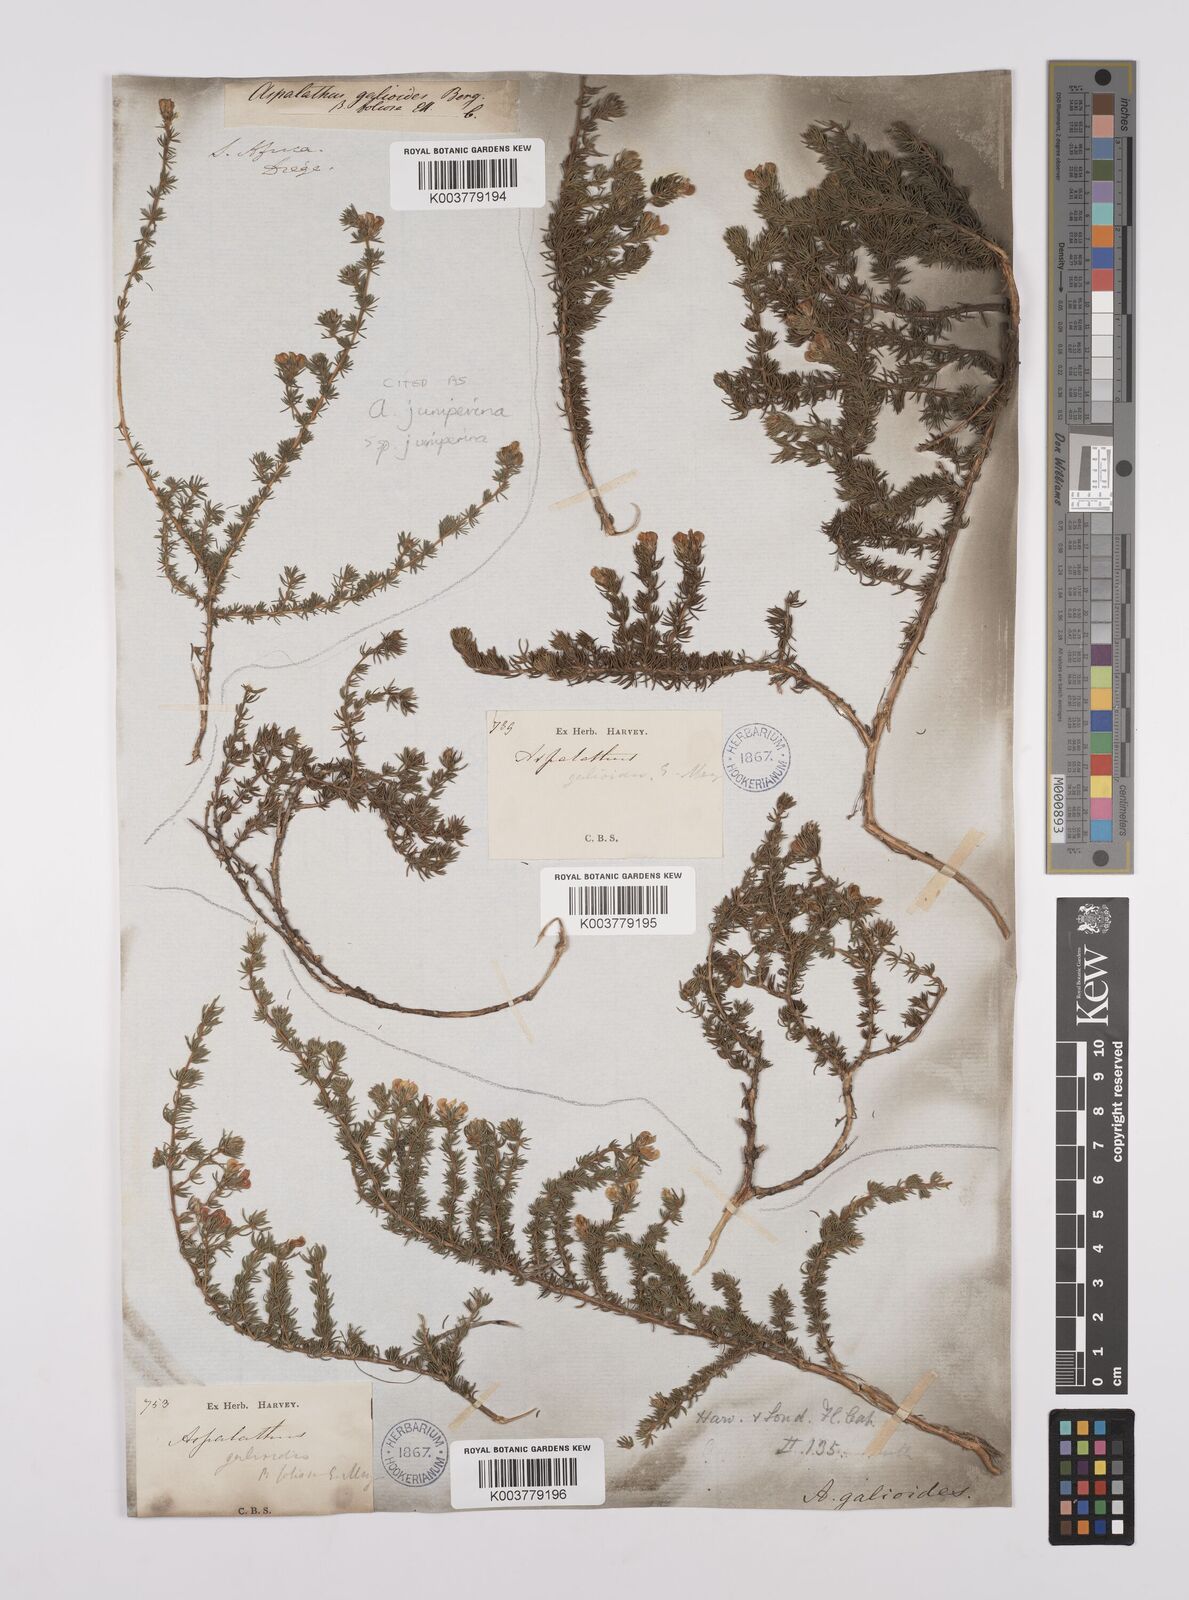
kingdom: Plantae
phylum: Tracheophyta
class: Magnoliopsida
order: Fabales
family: Fabaceae
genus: Aspalathus
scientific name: Aspalathus juniperina
